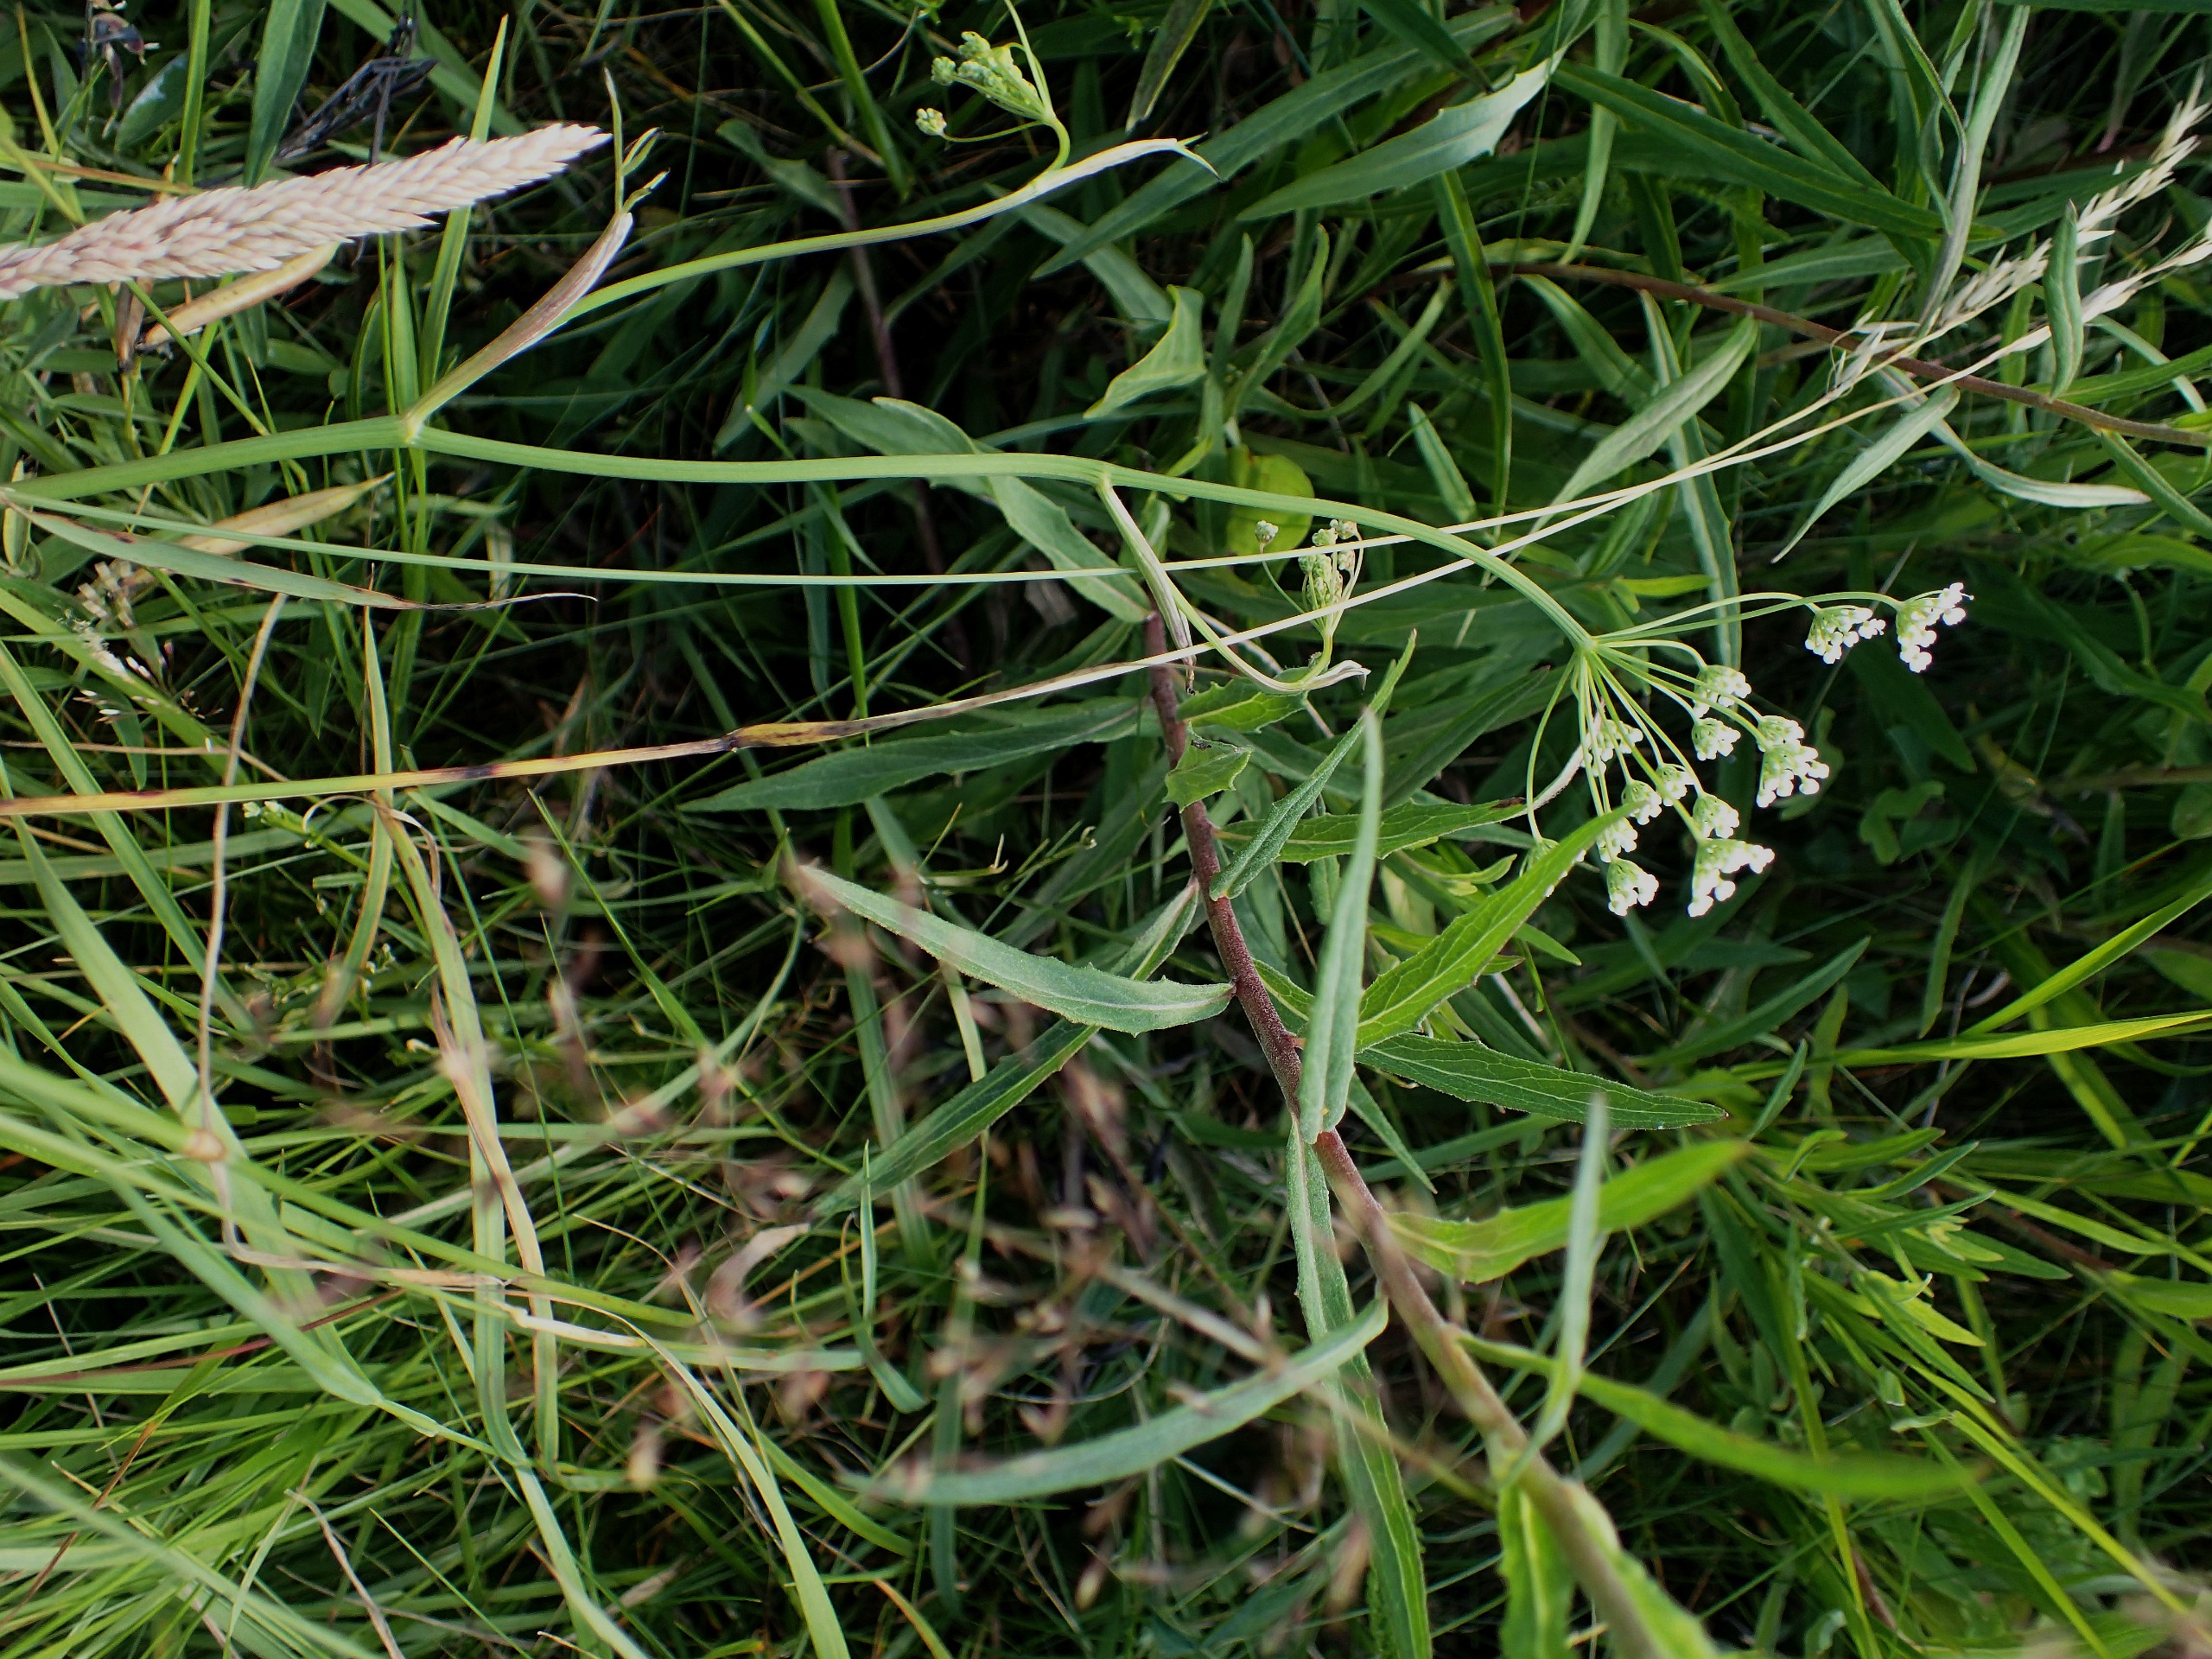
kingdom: Plantae
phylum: Tracheophyta
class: Magnoliopsida
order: Apiales
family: Apiaceae
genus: Pimpinella
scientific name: Pimpinella saxifraga
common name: Almindelig pimpinelle
